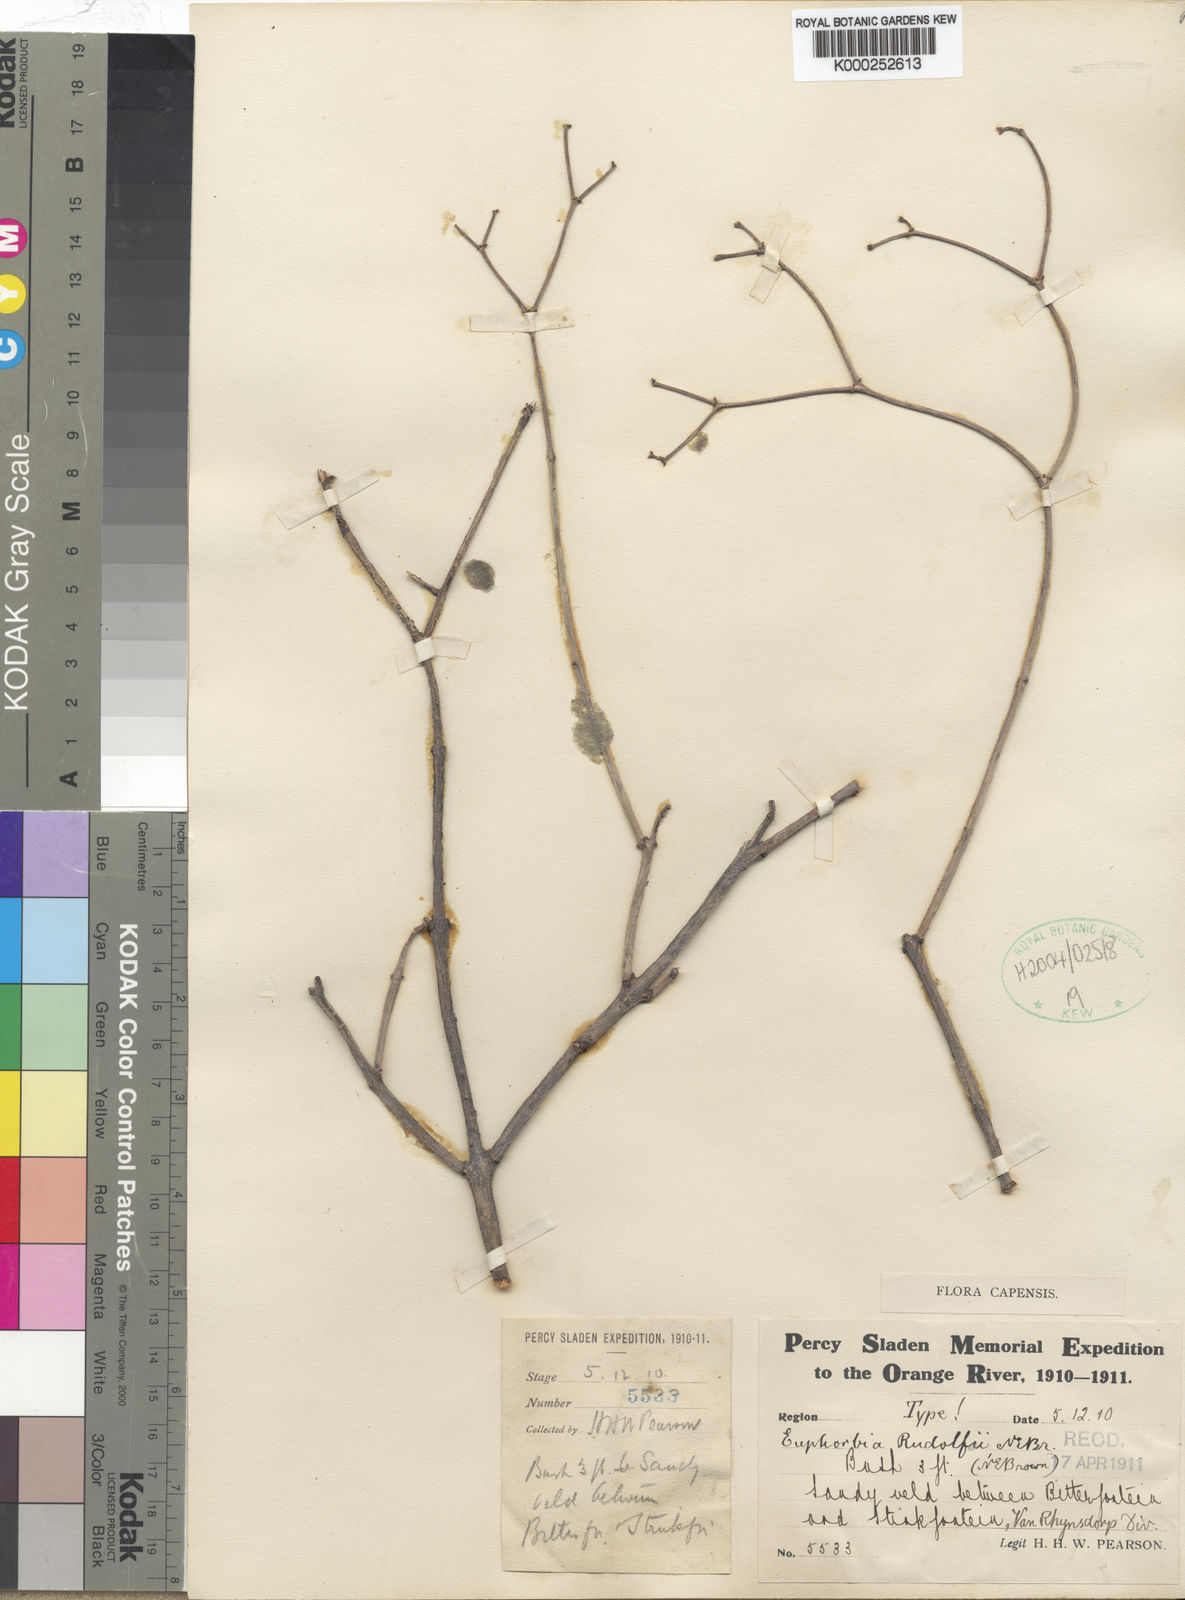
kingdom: Plantae
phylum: Tracheophyta
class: Magnoliopsida
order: Malpighiales
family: Euphorbiaceae
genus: Euphorbia
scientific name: Euphorbia rhombifolia
